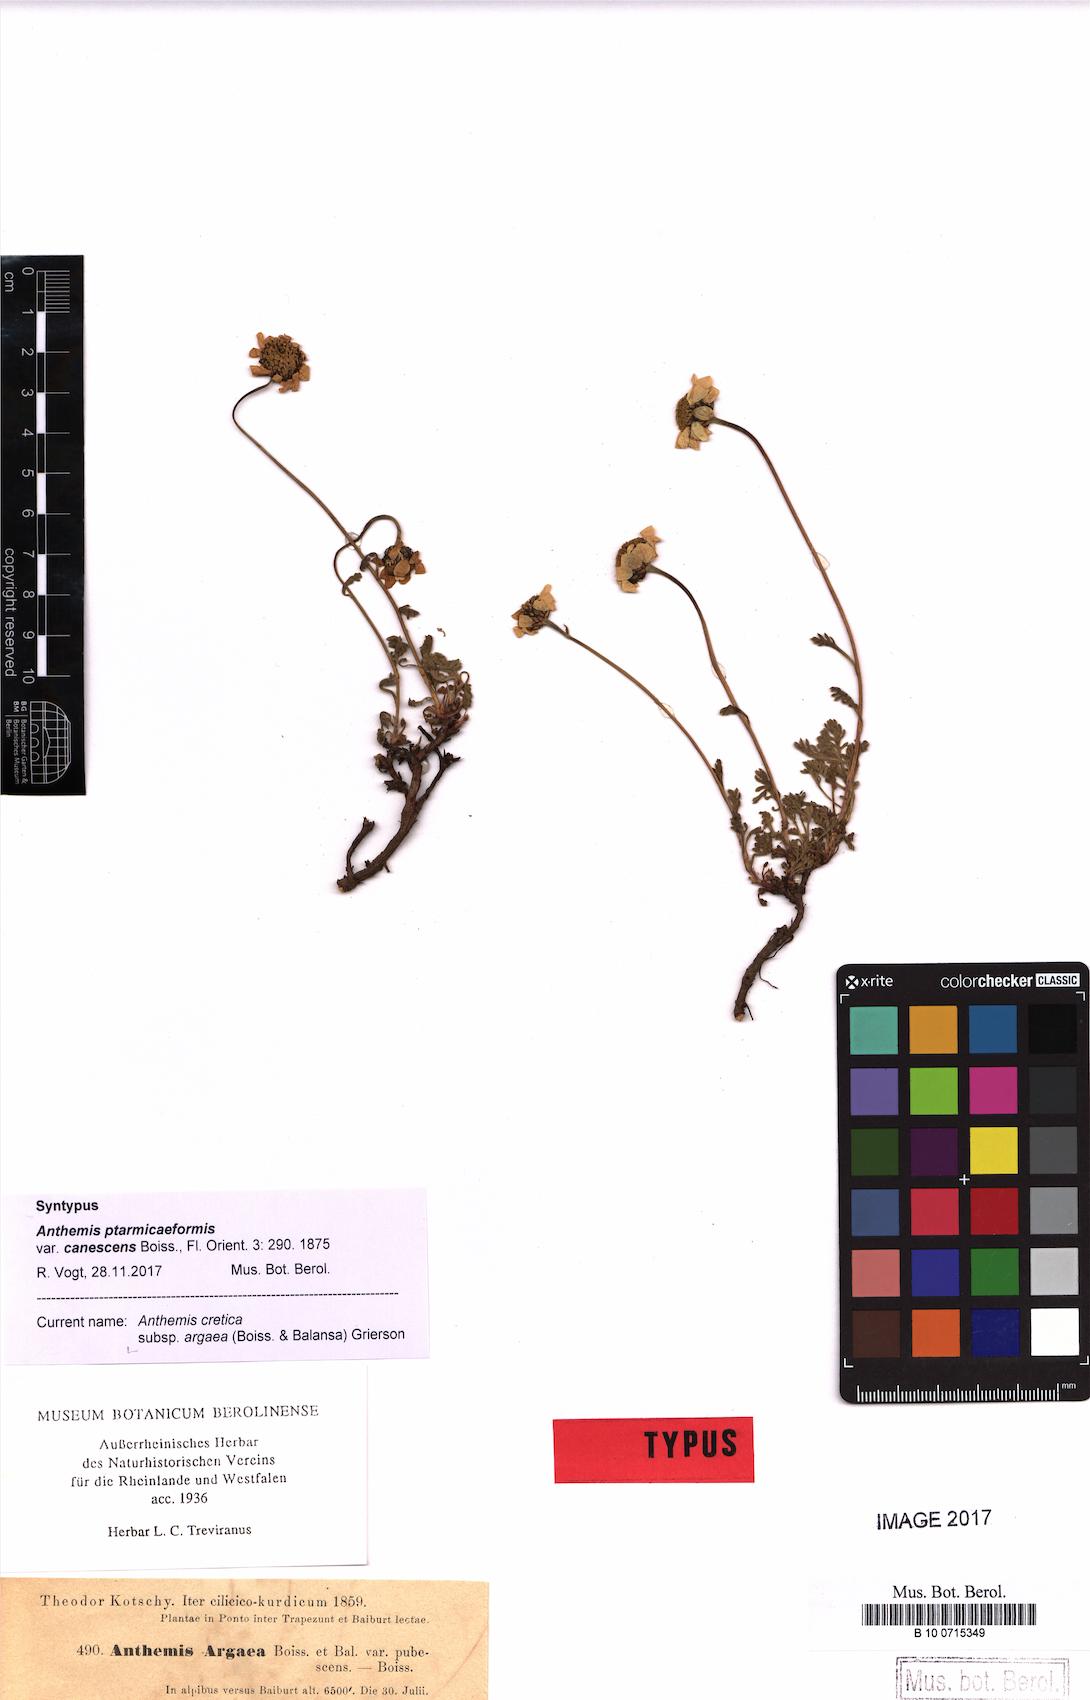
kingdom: Plantae
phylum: Tracheophyta
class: Magnoliopsida
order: Asterales
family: Asteraceae
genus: Anthemis
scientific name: Anthemis cretica
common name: Mountain dog-daisy
